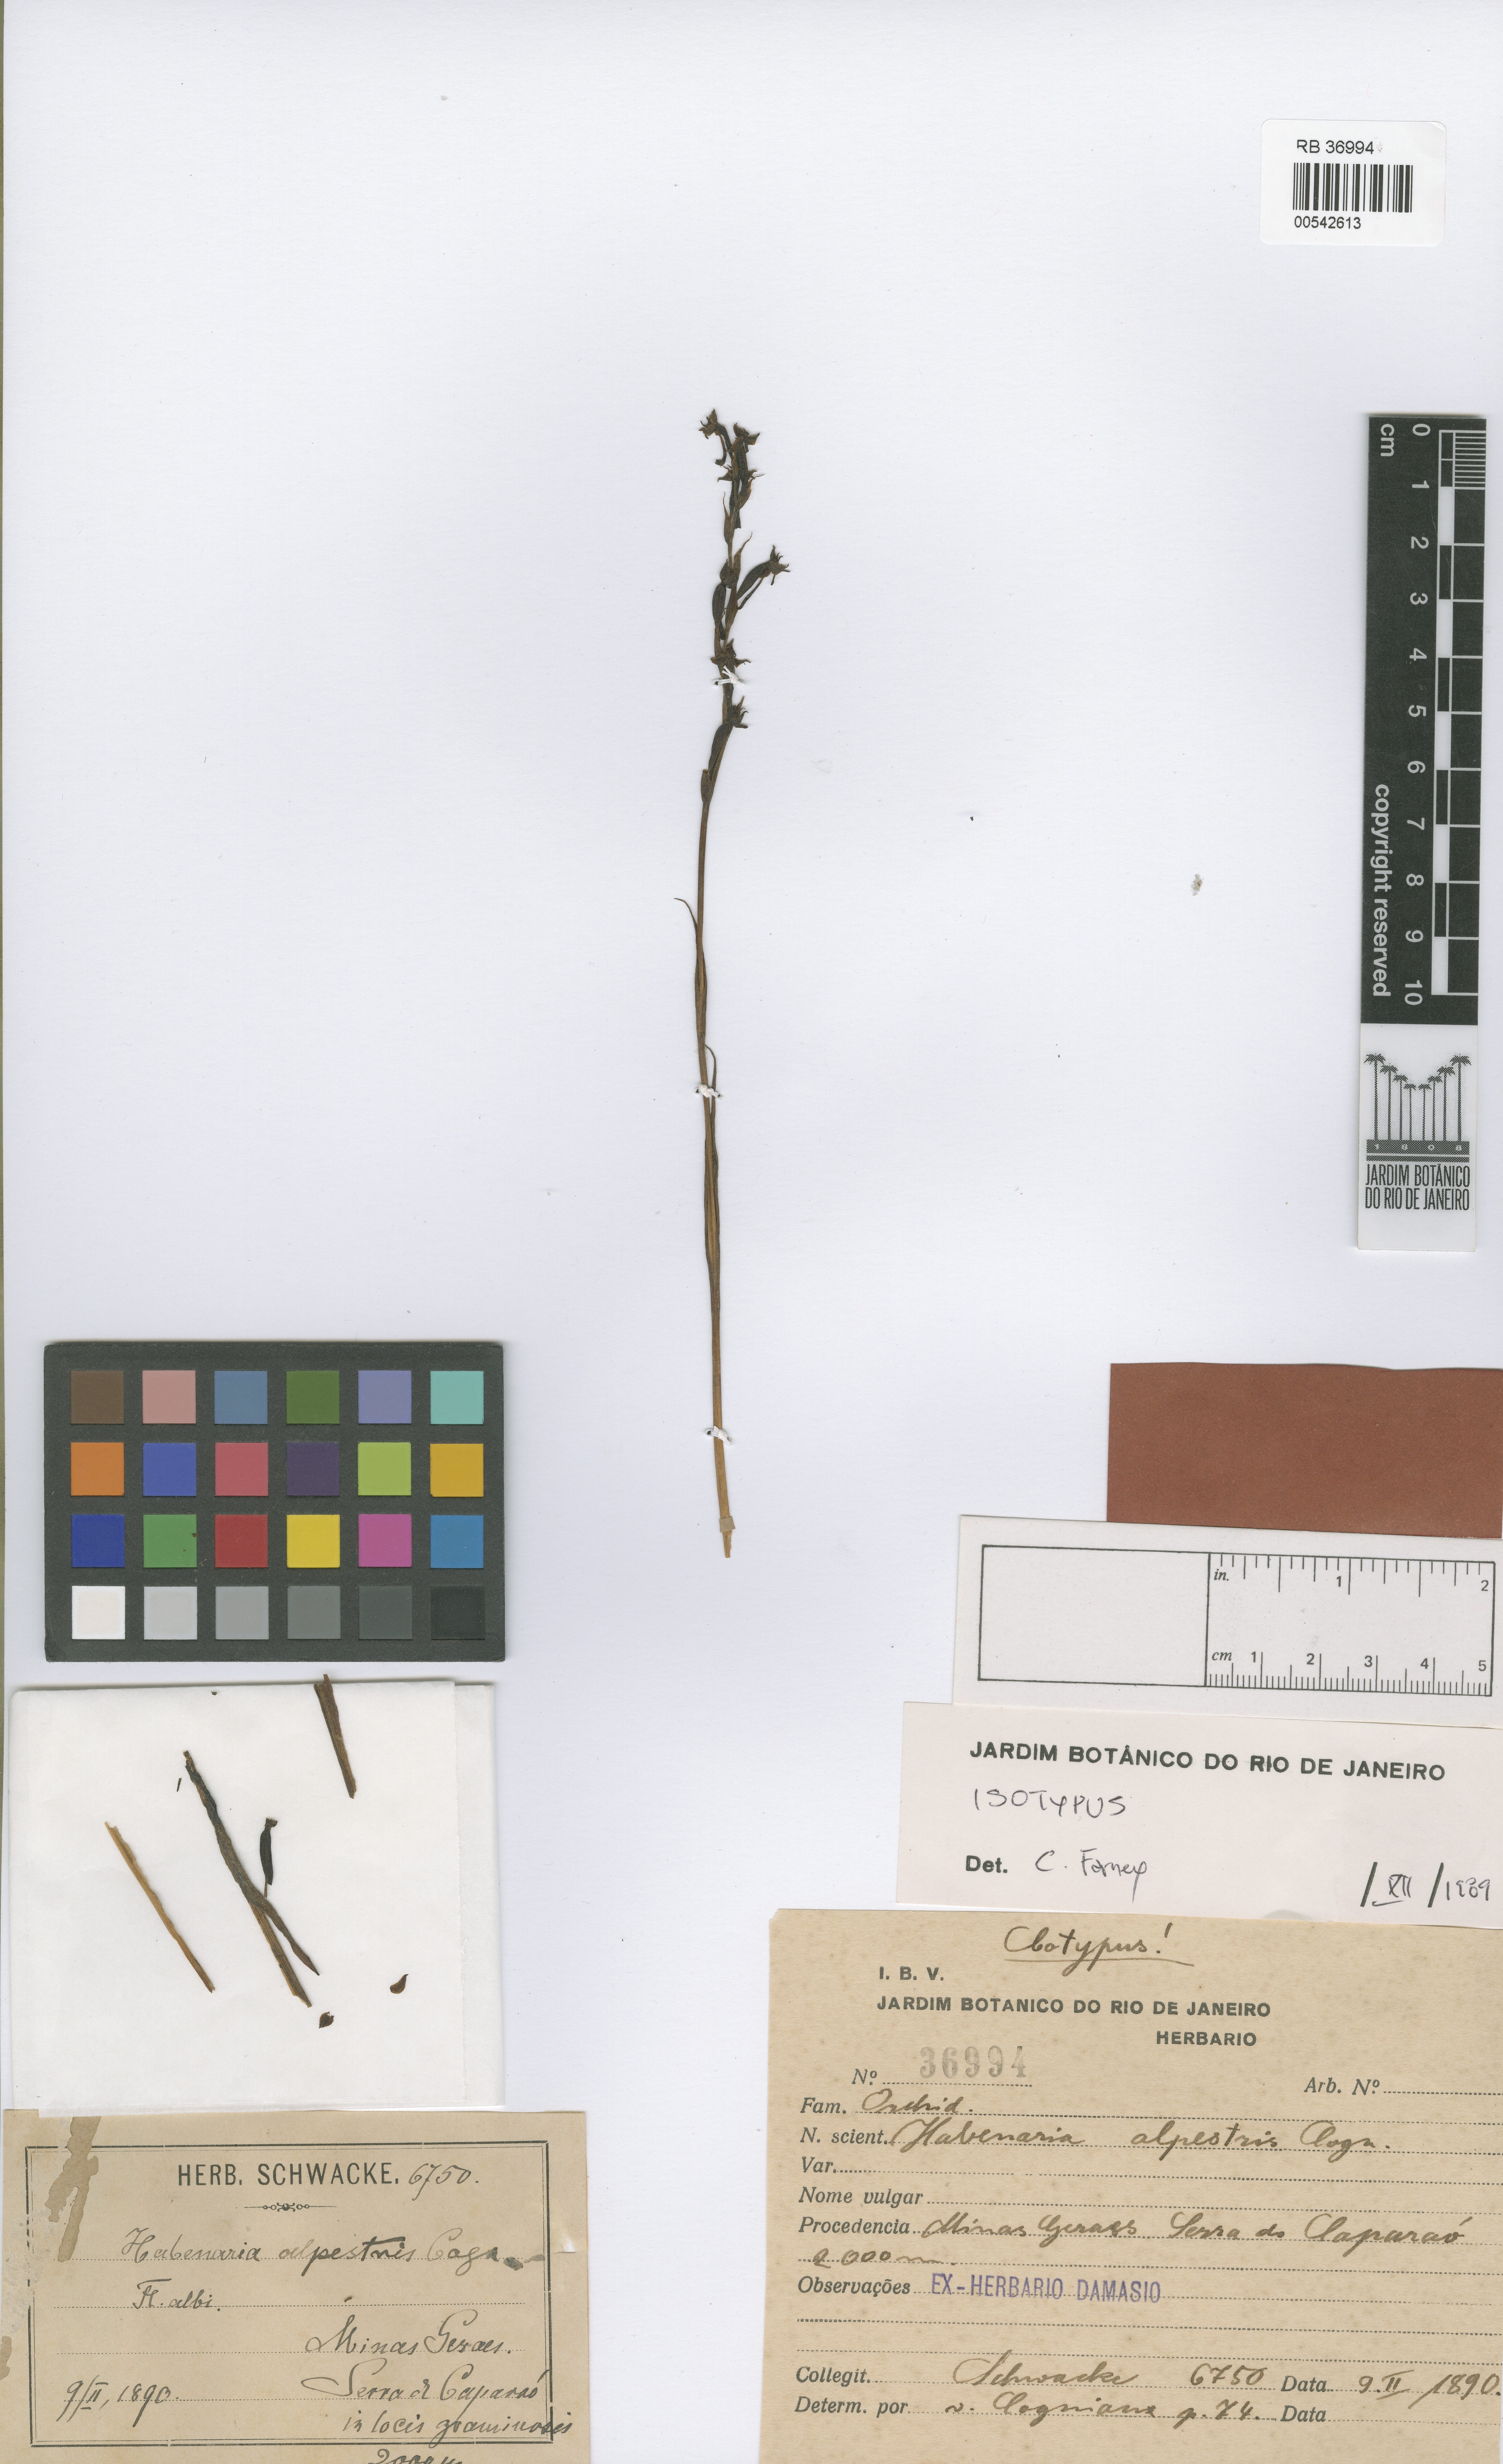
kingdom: Plantae
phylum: Tracheophyta
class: Liliopsida
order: Asparagales
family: Orchidaceae
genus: Habenaria
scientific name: Habenaria alpestris
